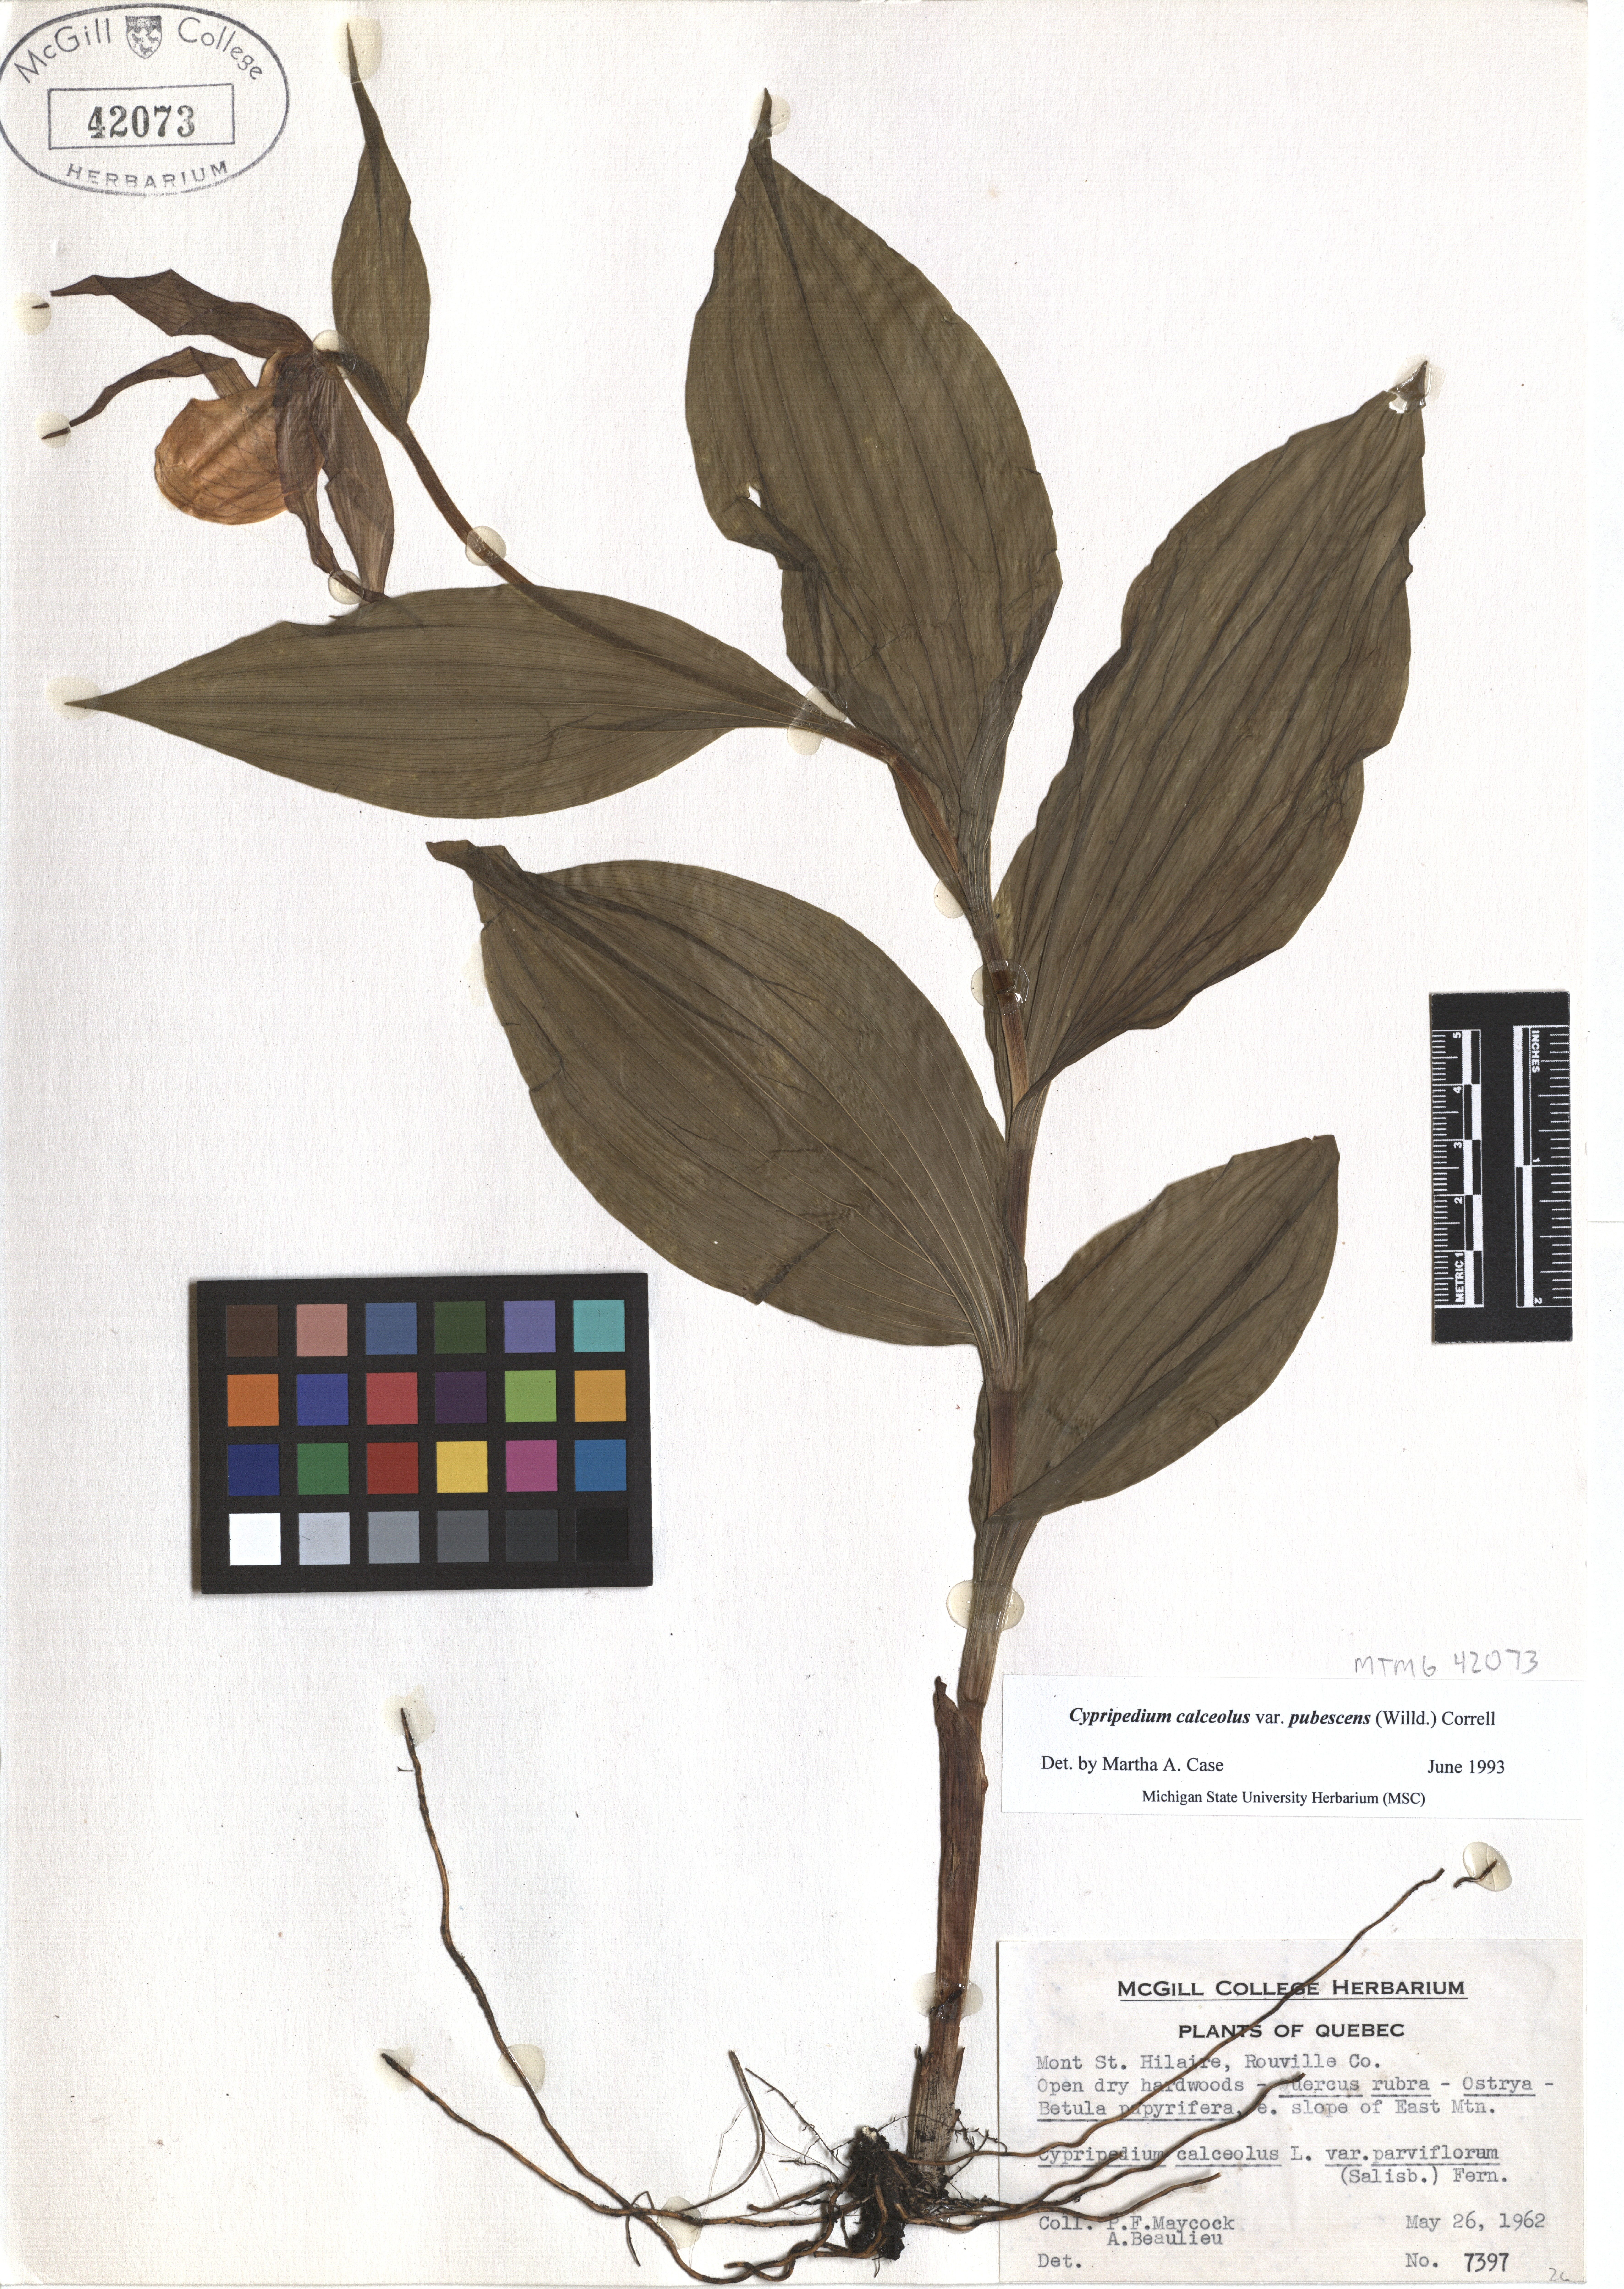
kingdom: Plantae
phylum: Tracheophyta
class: Liliopsida
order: Asparagales
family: Orchidaceae
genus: Cypripedium
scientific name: Cypripedium calceolus
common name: Lady's-slipper
